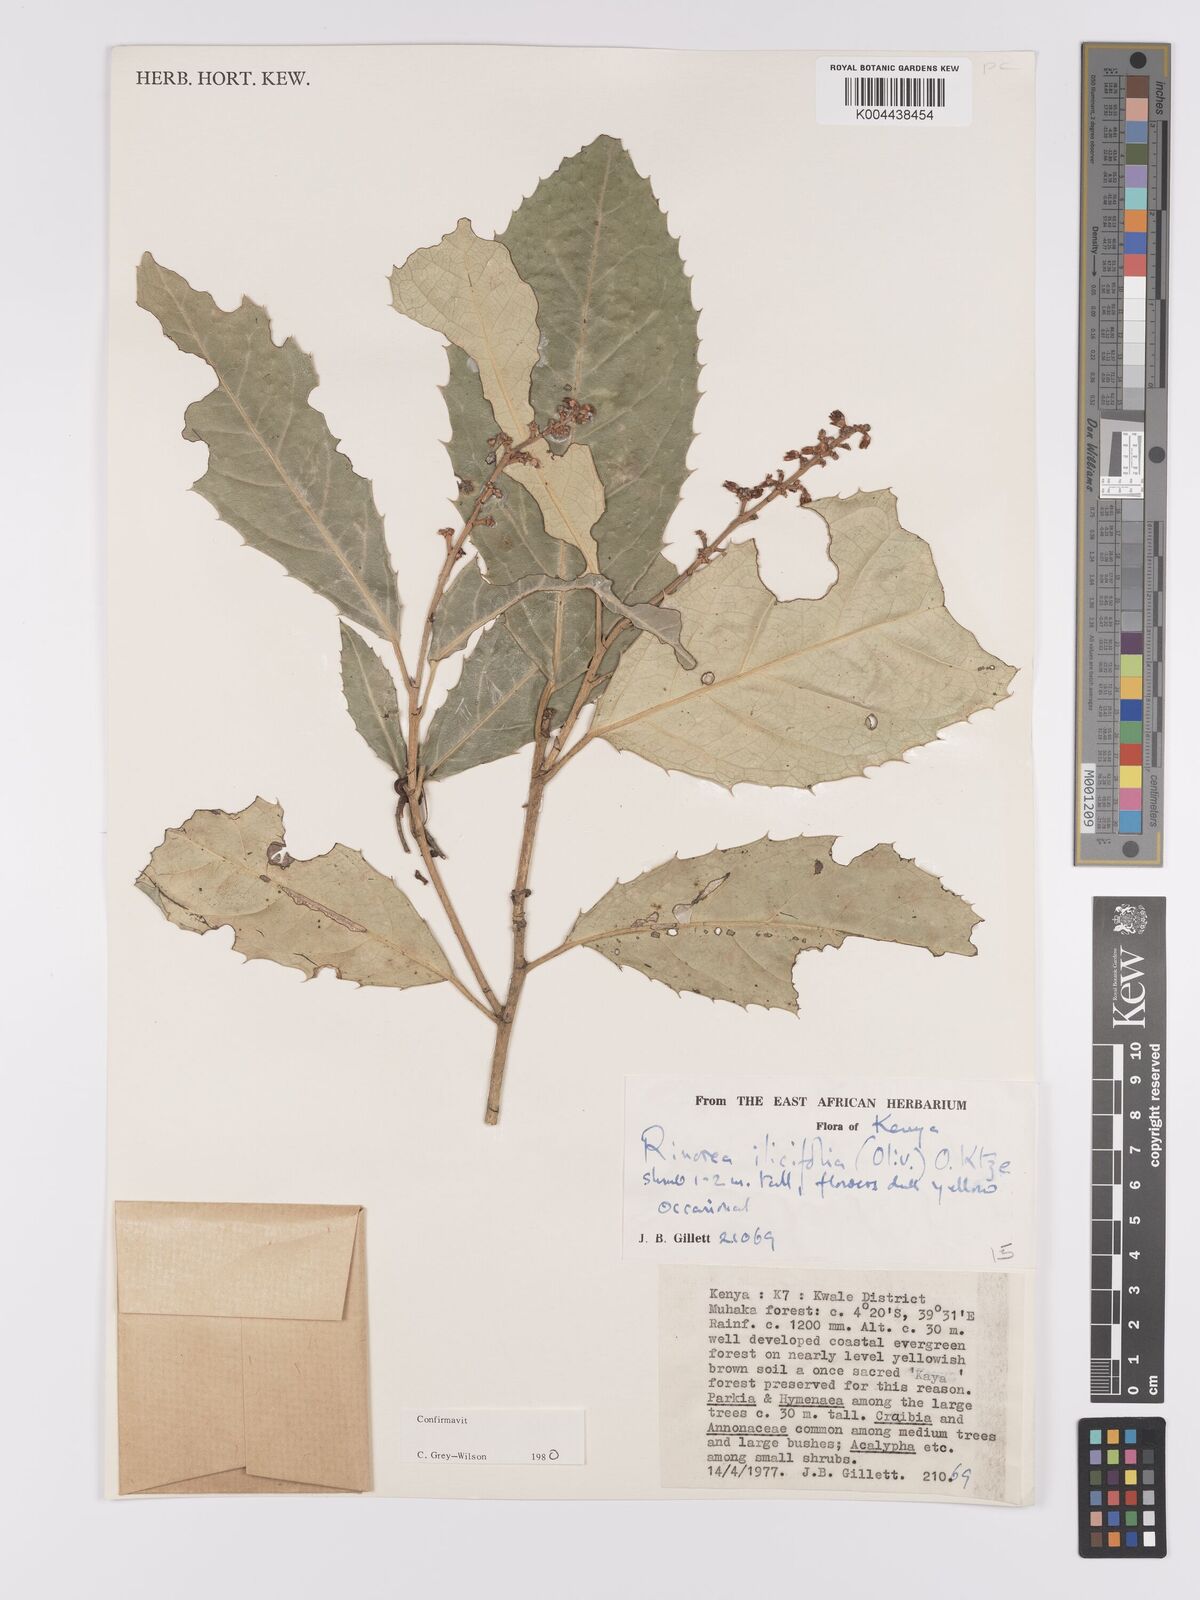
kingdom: Plantae
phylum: Tracheophyta
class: Magnoliopsida
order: Malpighiales
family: Violaceae
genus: Rinorea
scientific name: Rinorea ilicifolia
